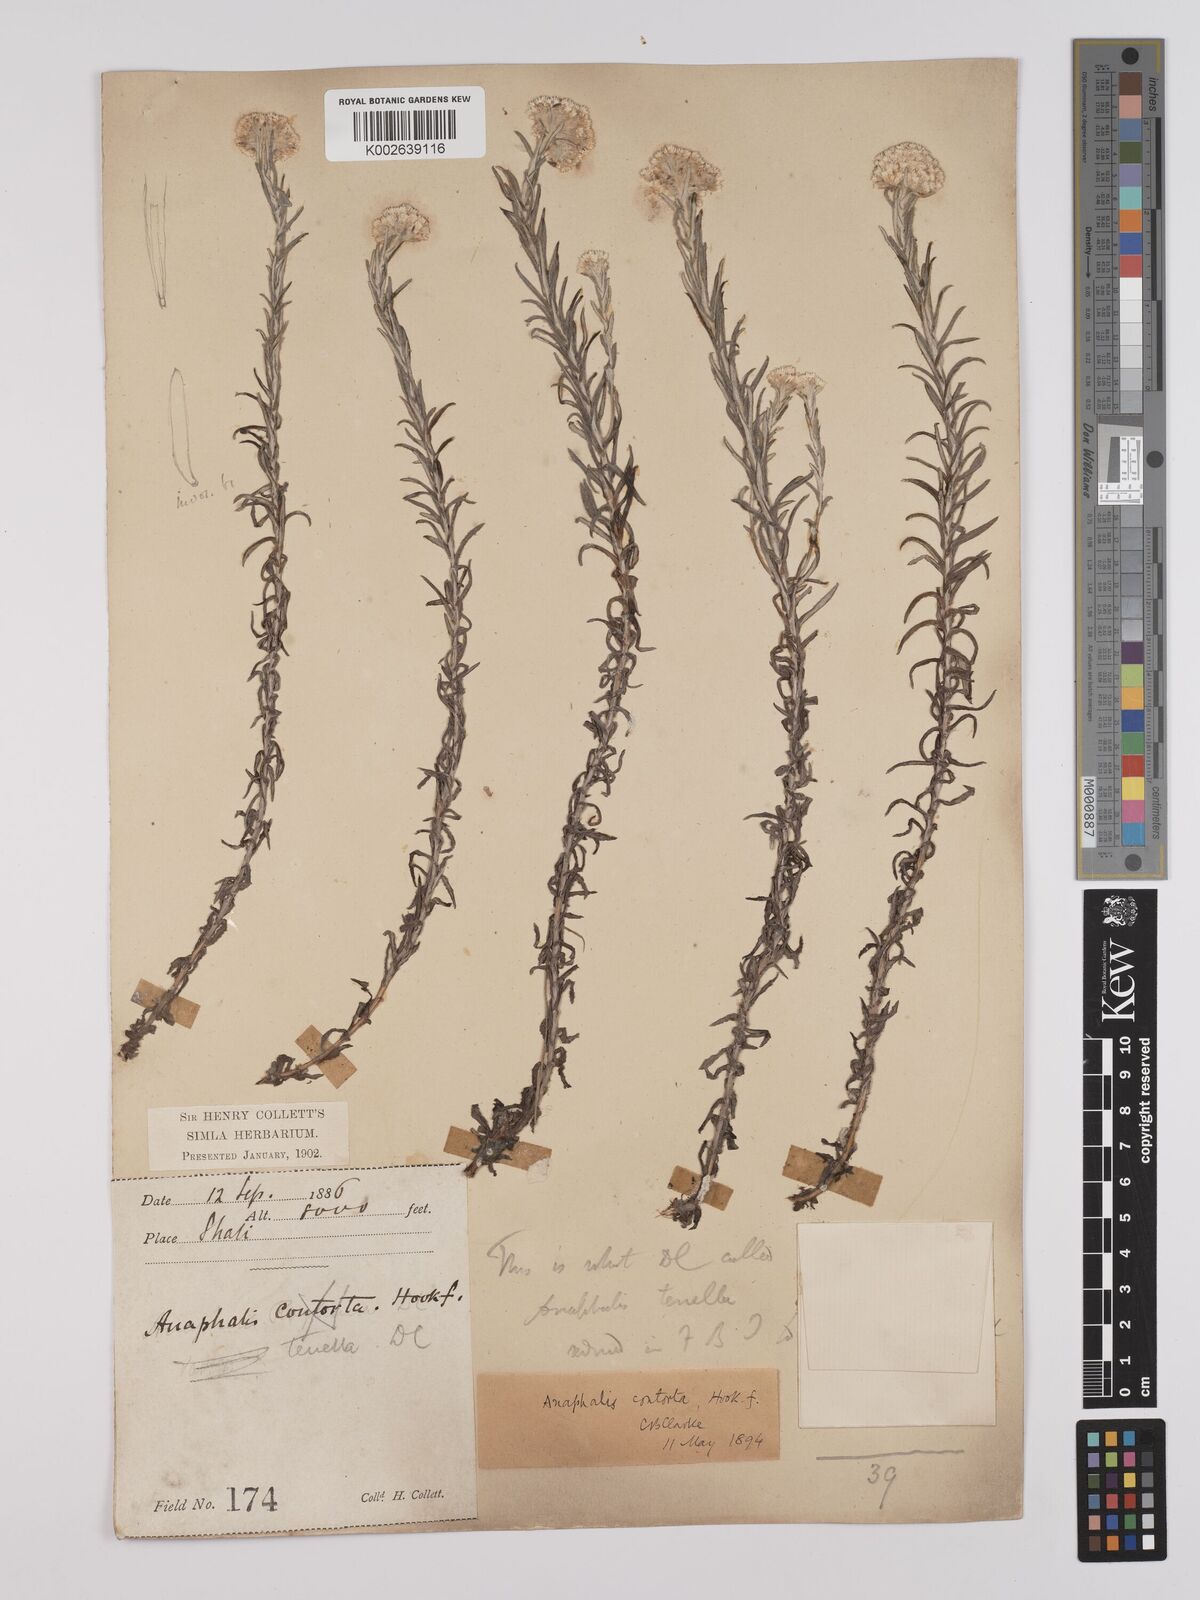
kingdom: Plantae
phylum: Tracheophyta
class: Magnoliopsida
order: Asterales
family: Asteraceae
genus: Anaphalis
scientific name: Anaphalis contorta
